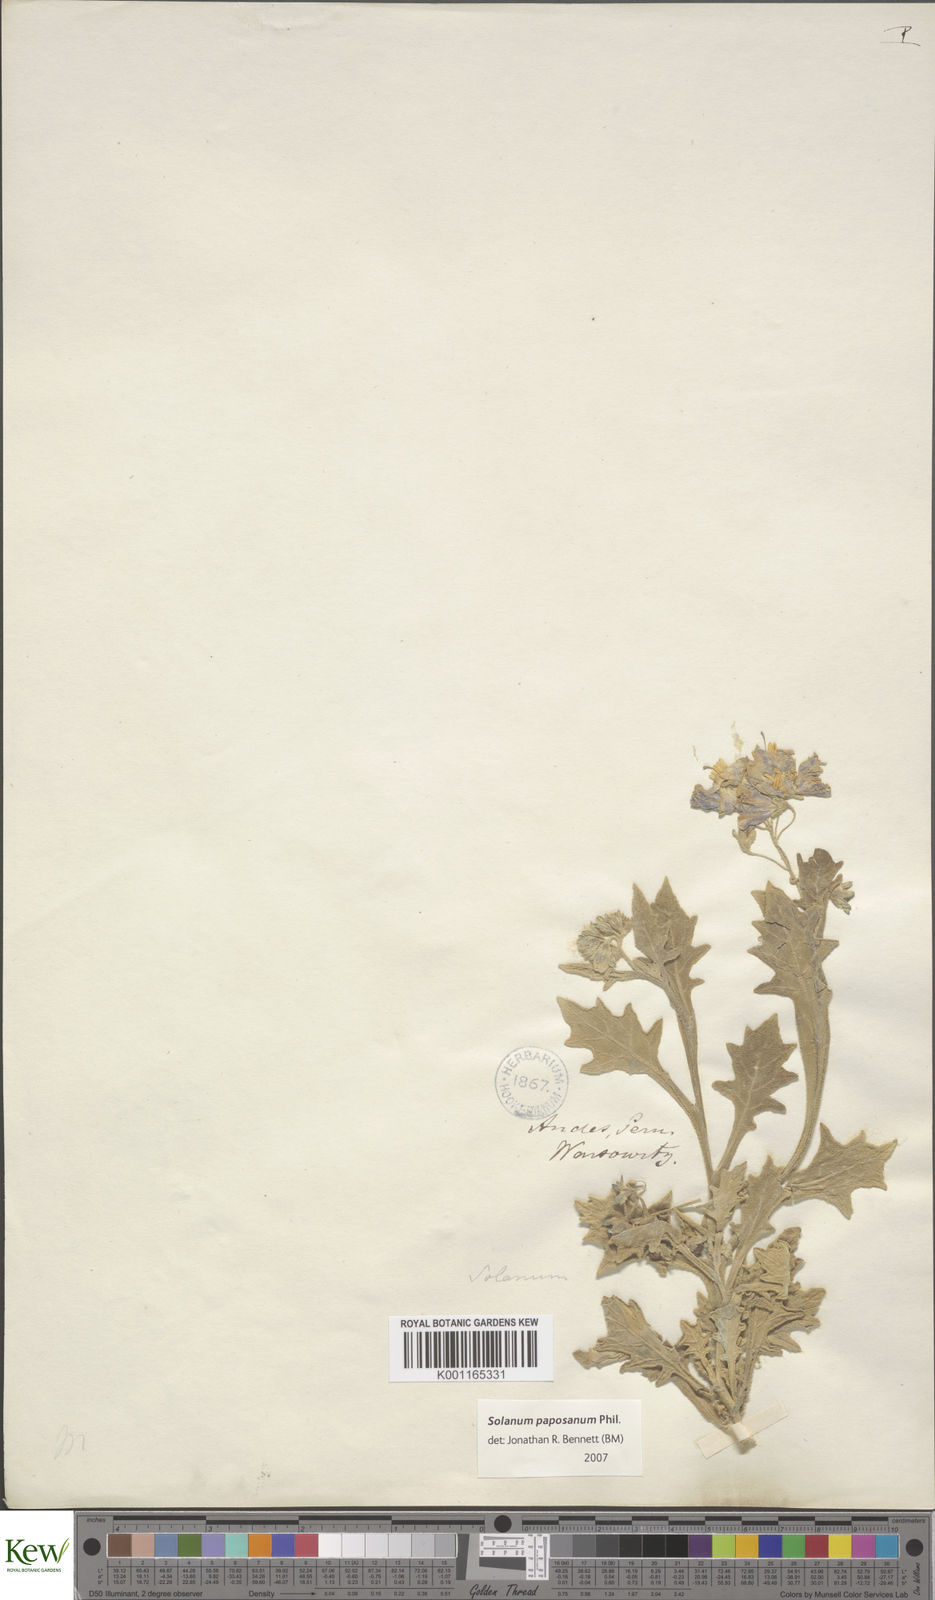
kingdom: Plantae
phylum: Tracheophyta
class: Magnoliopsida
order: Solanales
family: Solanaceae
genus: Solanum
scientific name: Solanum paposanum
